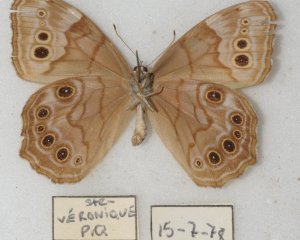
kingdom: Animalia
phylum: Arthropoda
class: Insecta
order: Lepidoptera
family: Nymphalidae
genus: Lethe
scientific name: Lethe anthedon
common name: Northern Pearly-Eye
